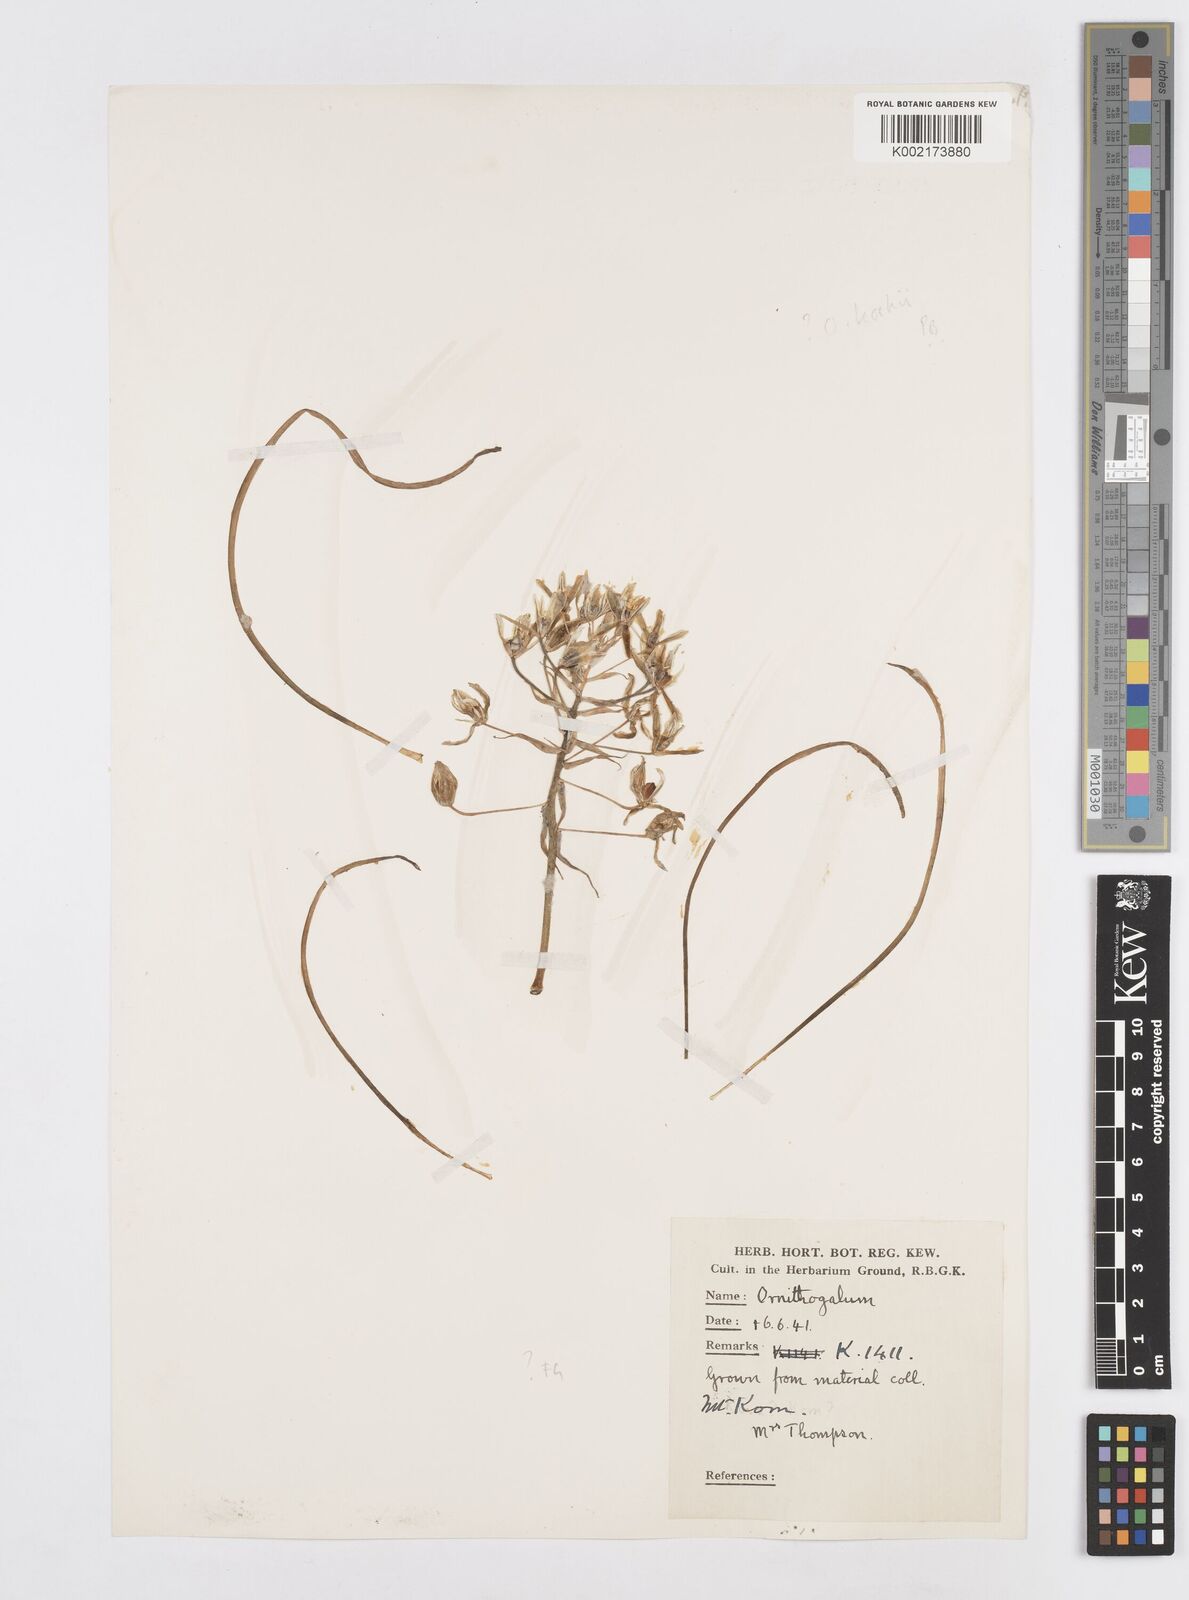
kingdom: Plantae
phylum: Tracheophyta
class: Liliopsida
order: Asparagales
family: Asparagaceae
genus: Ornithogalum
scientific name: Ornithogalum orthophyllum
